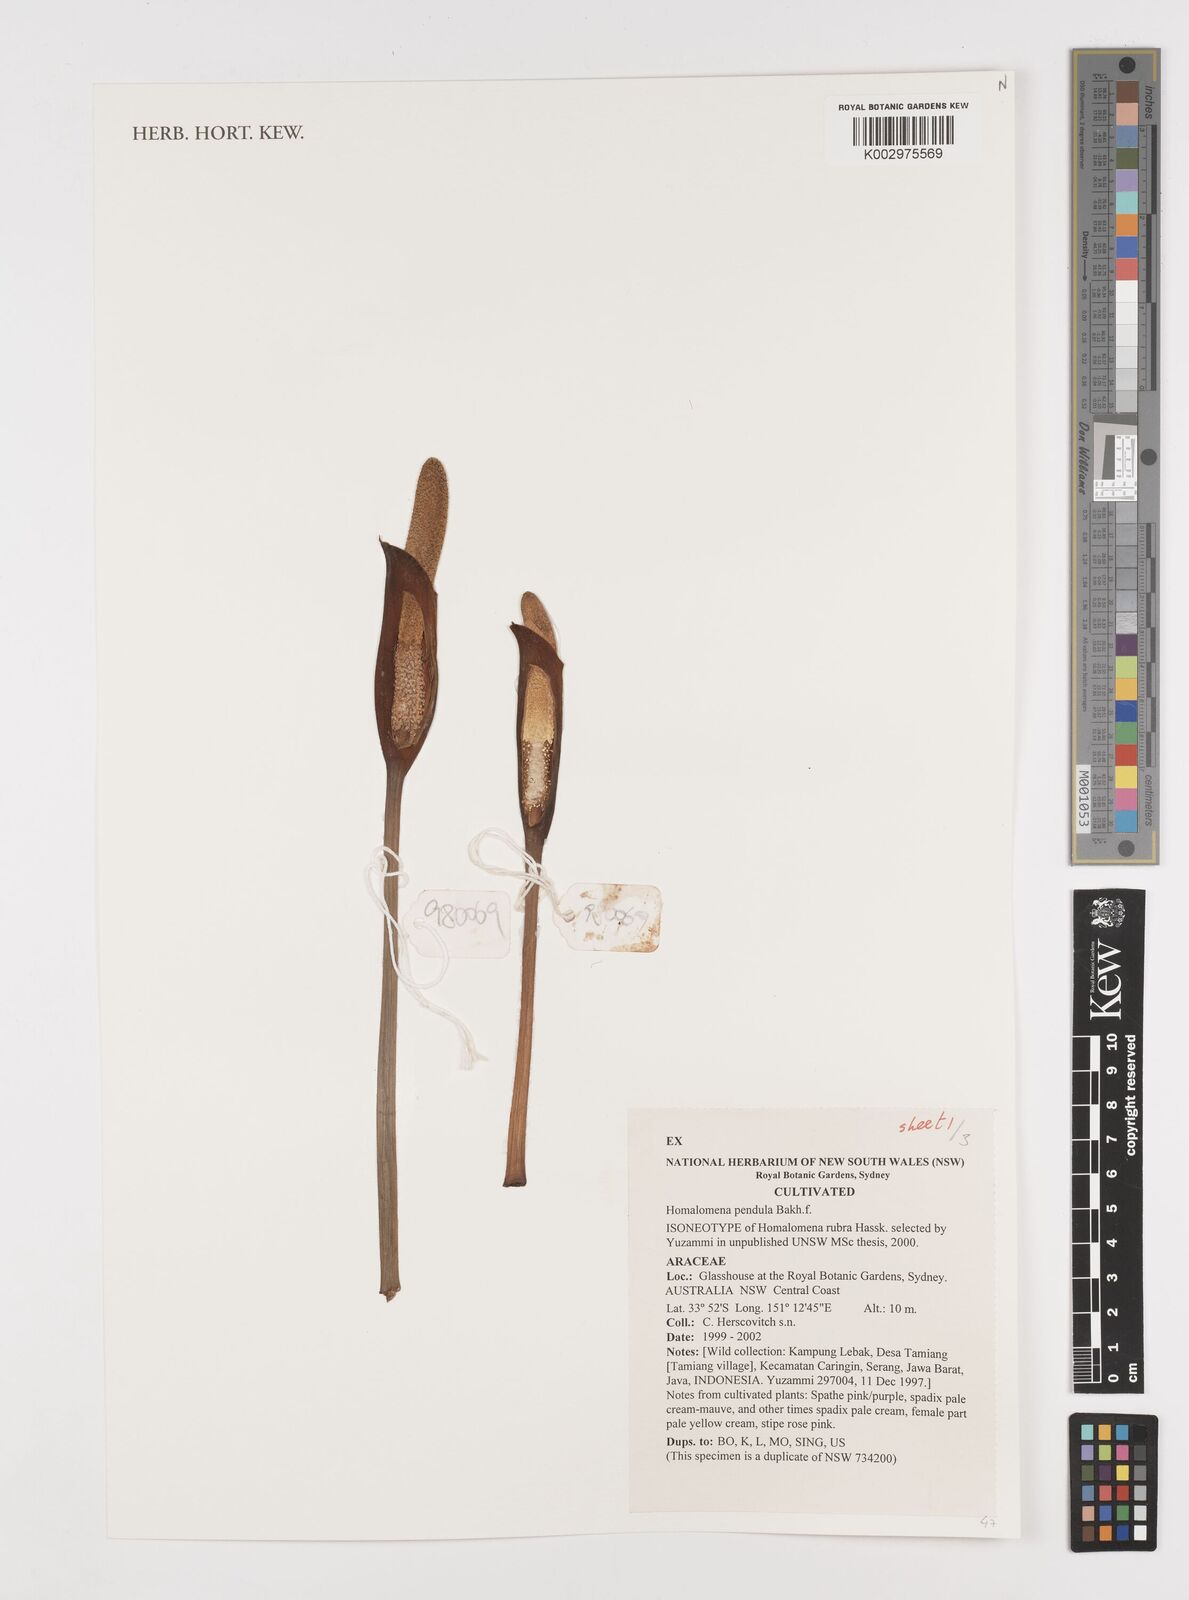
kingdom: Plantae
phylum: Tracheophyta
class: Liliopsida
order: Alismatales
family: Araceae
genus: Homalomena
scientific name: Homalomena
